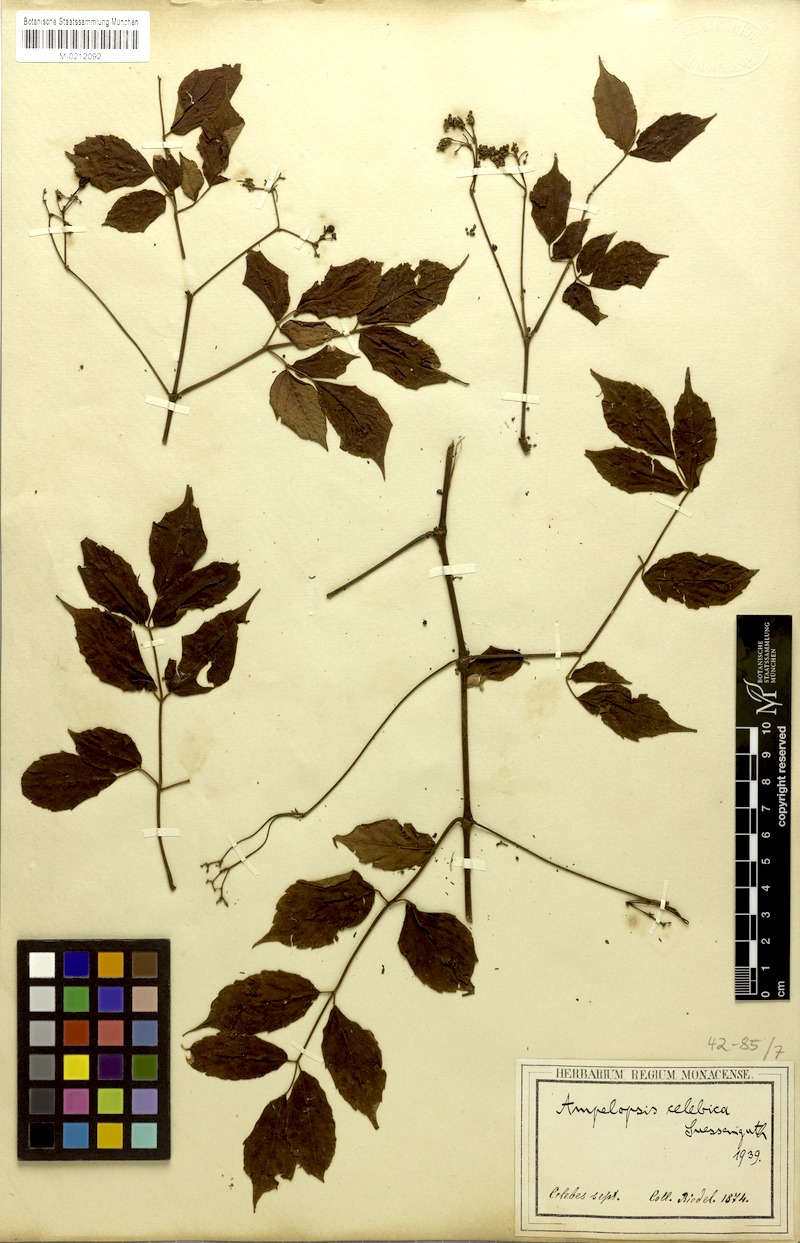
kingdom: Plantae
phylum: Tracheophyta
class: Magnoliopsida
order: Vitales
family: Vitaceae
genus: Nekemias
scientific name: Nekemias celebica
